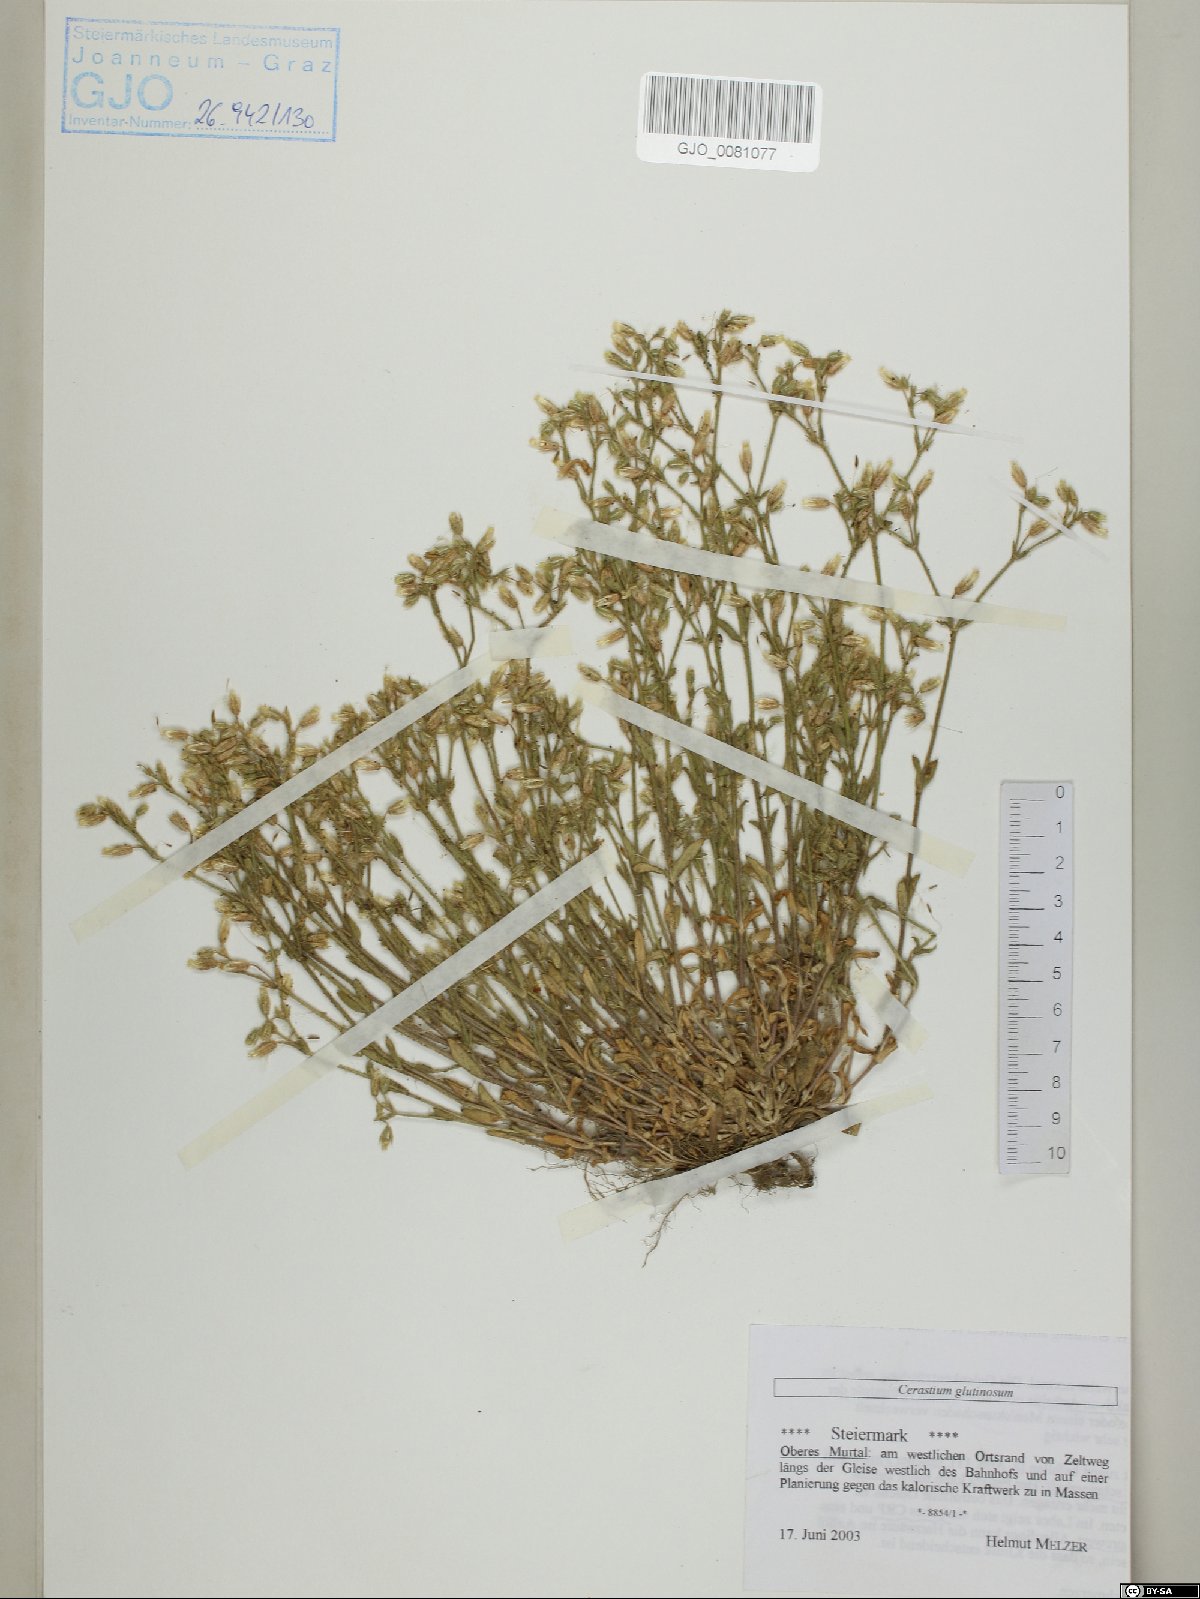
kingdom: Plantae
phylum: Tracheophyta
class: Magnoliopsida
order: Caryophyllales
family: Caryophyllaceae
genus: Cerastium
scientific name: Cerastium glutinosum
